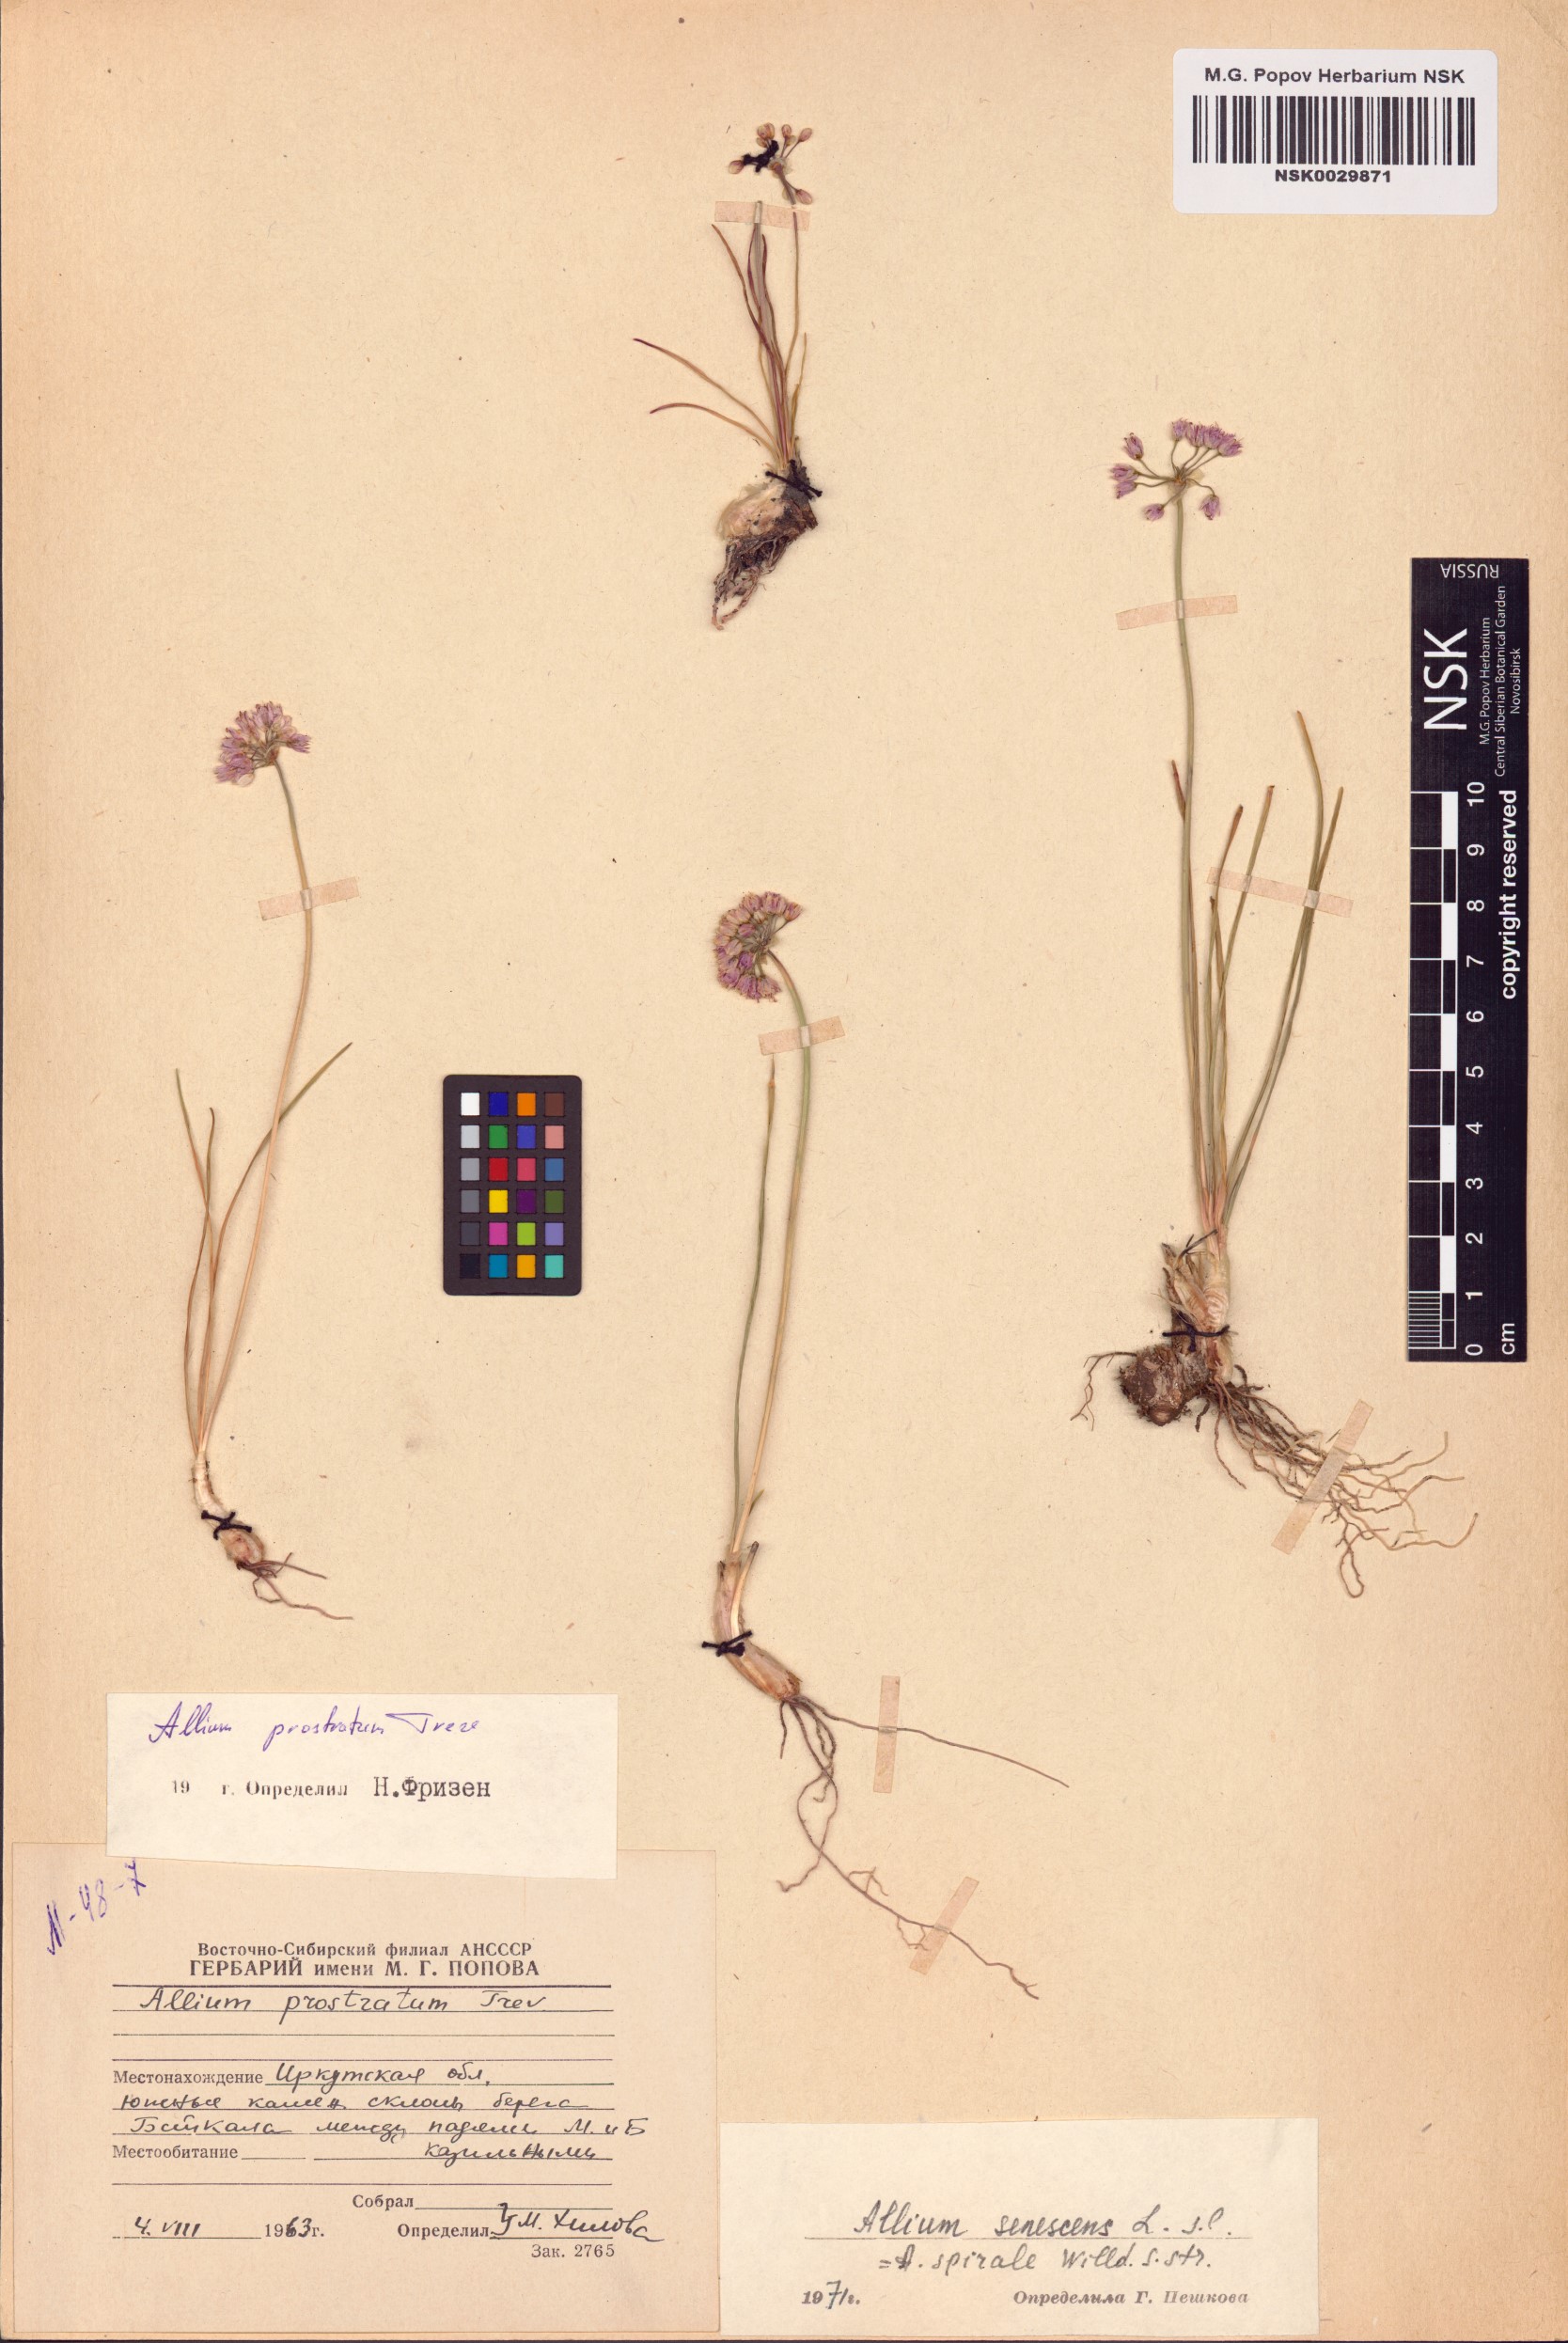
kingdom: Plantae
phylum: Tracheophyta
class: Liliopsida
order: Asparagales
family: Amaryllidaceae
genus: Allium
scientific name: Allium prostratum
